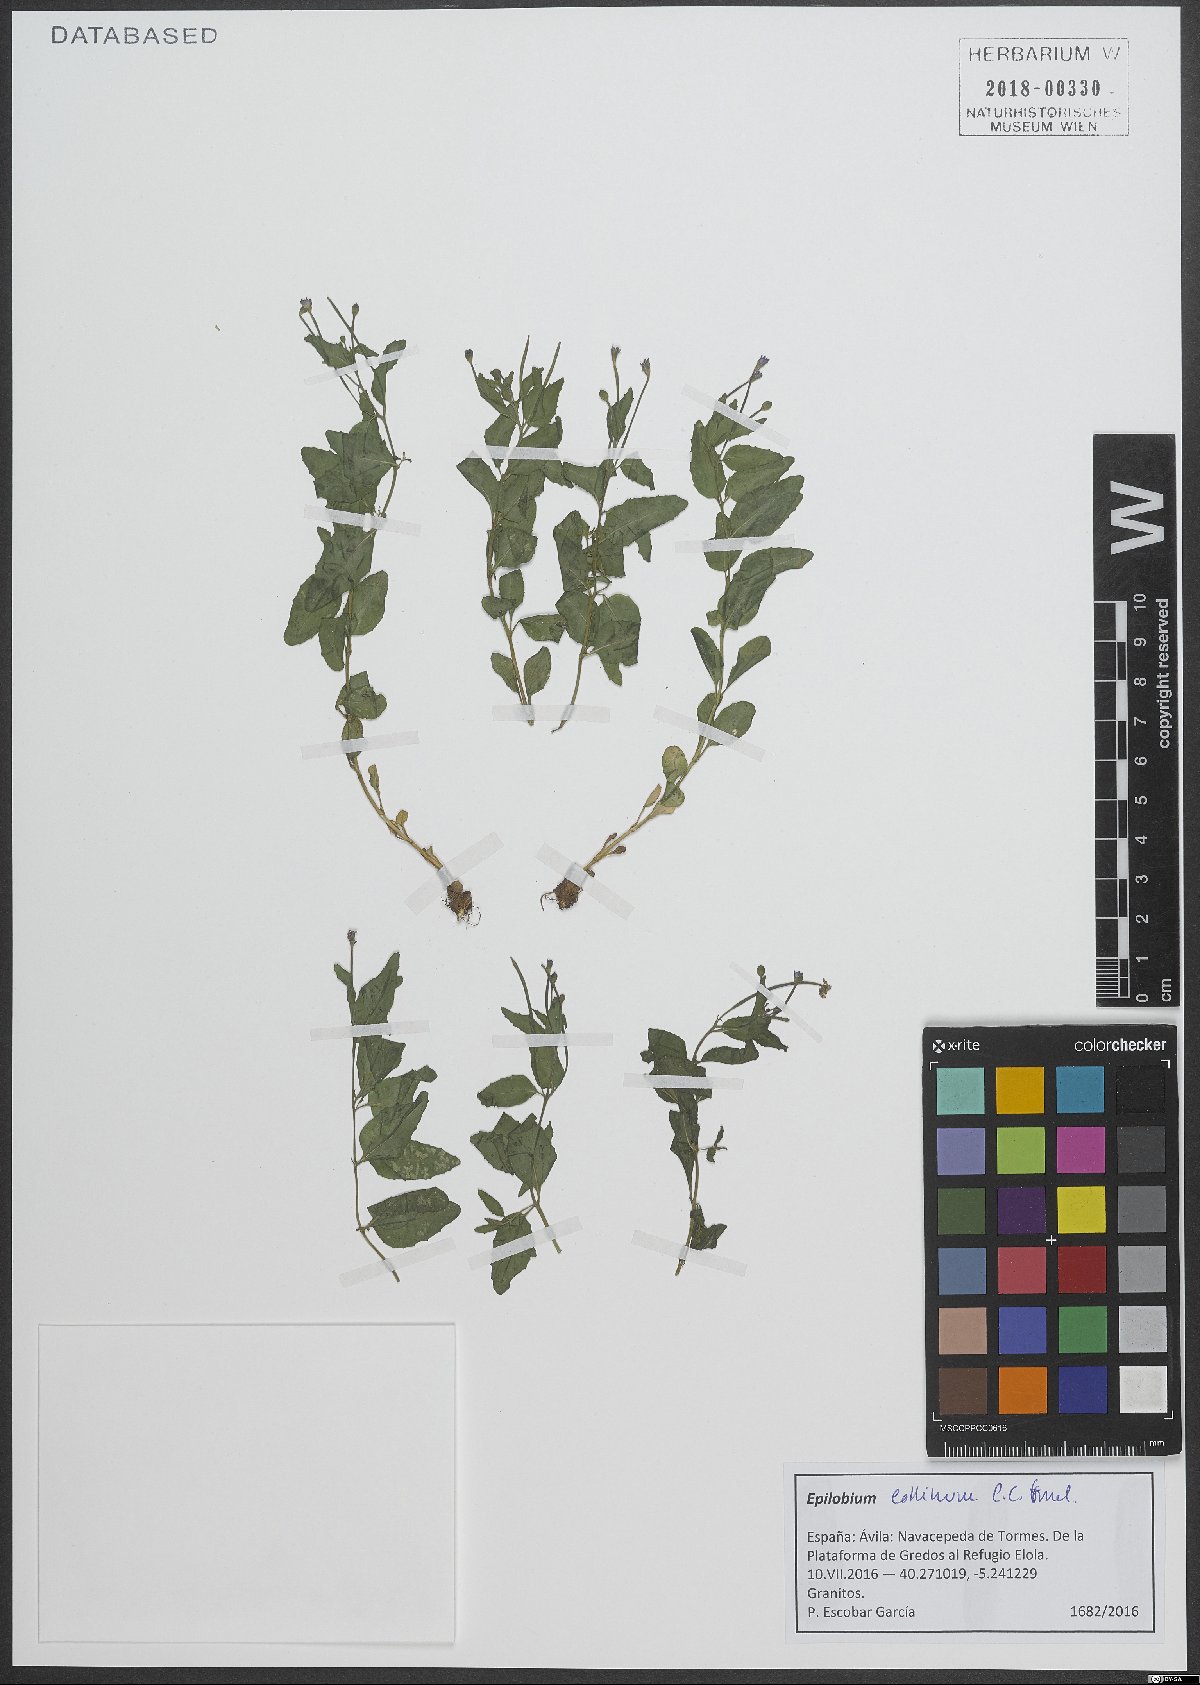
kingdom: Plantae
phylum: Tracheophyta
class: Magnoliopsida
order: Myrtales
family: Onagraceae
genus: Epilobium
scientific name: Epilobium collinum
